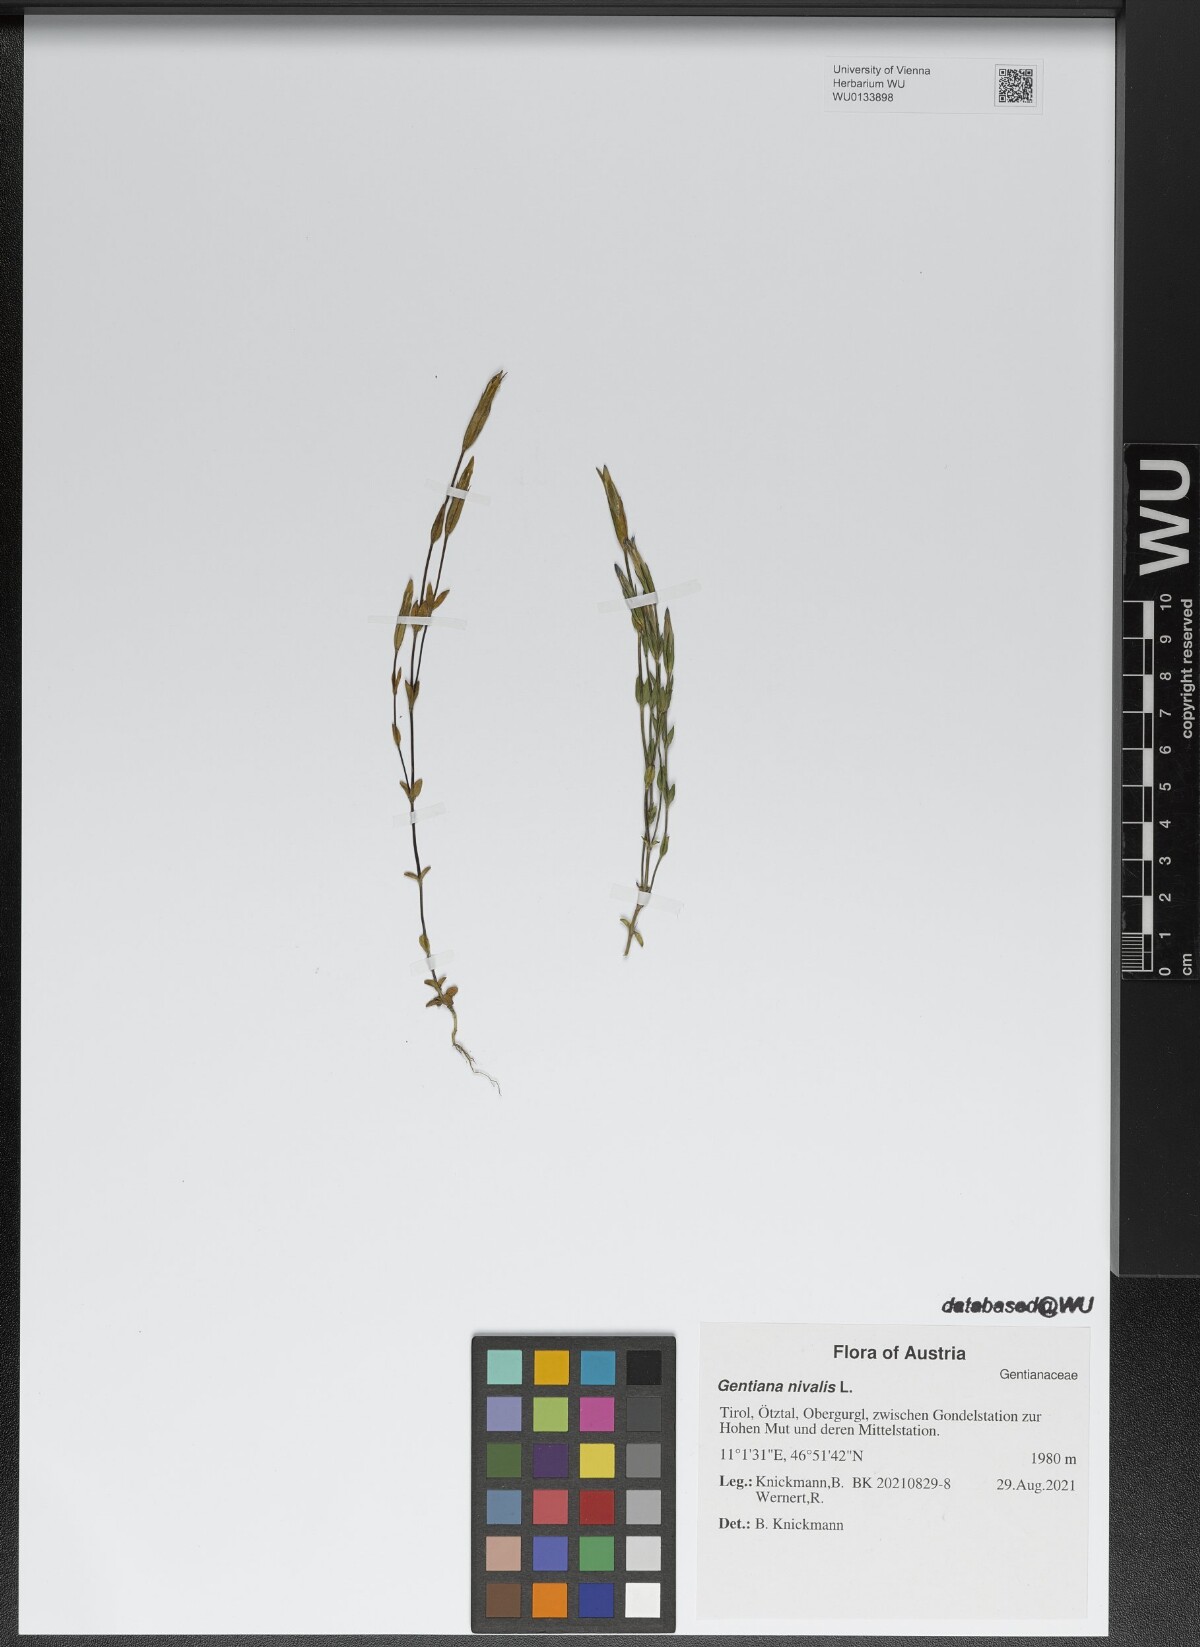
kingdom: Plantae
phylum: Tracheophyta
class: Magnoliopsida
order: Gentianales
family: Gentianaceae
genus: Gentiana
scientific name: Gentiana nivalis
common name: Alpine gentian
